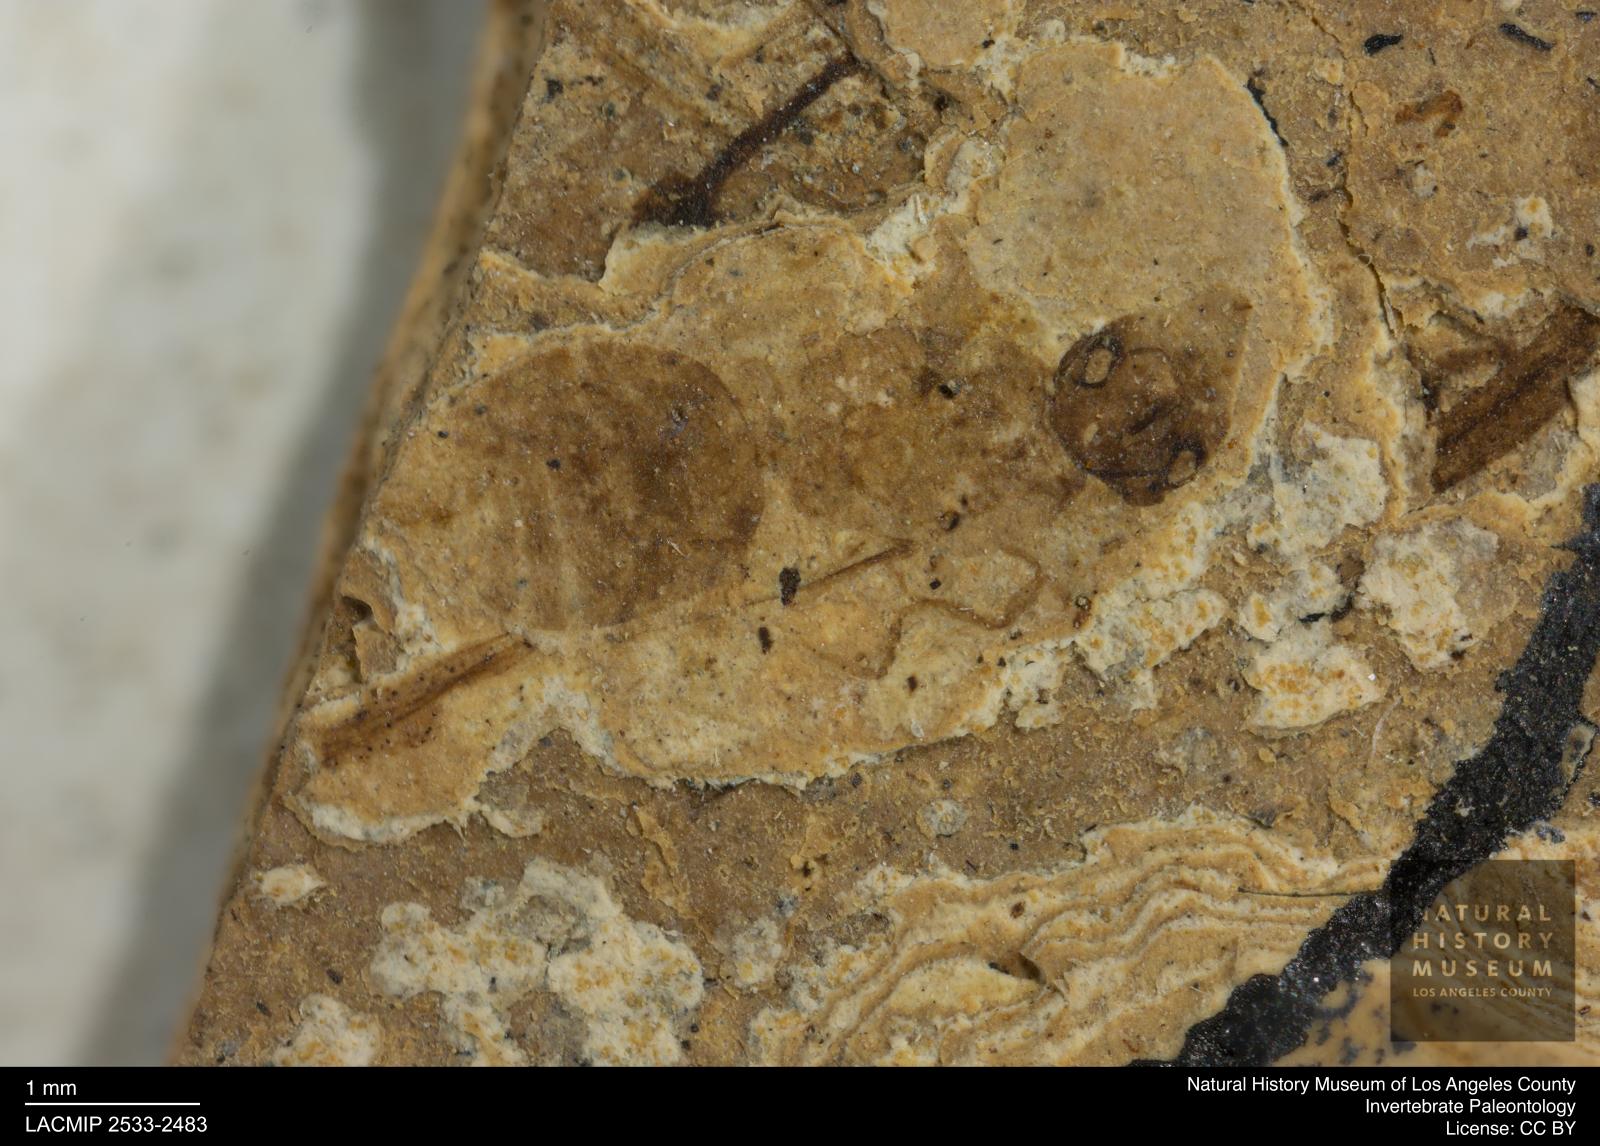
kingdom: Animalia
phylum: Arthropoda
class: Insecta
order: Hymenoptera
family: Formicidae
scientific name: Formicidae
